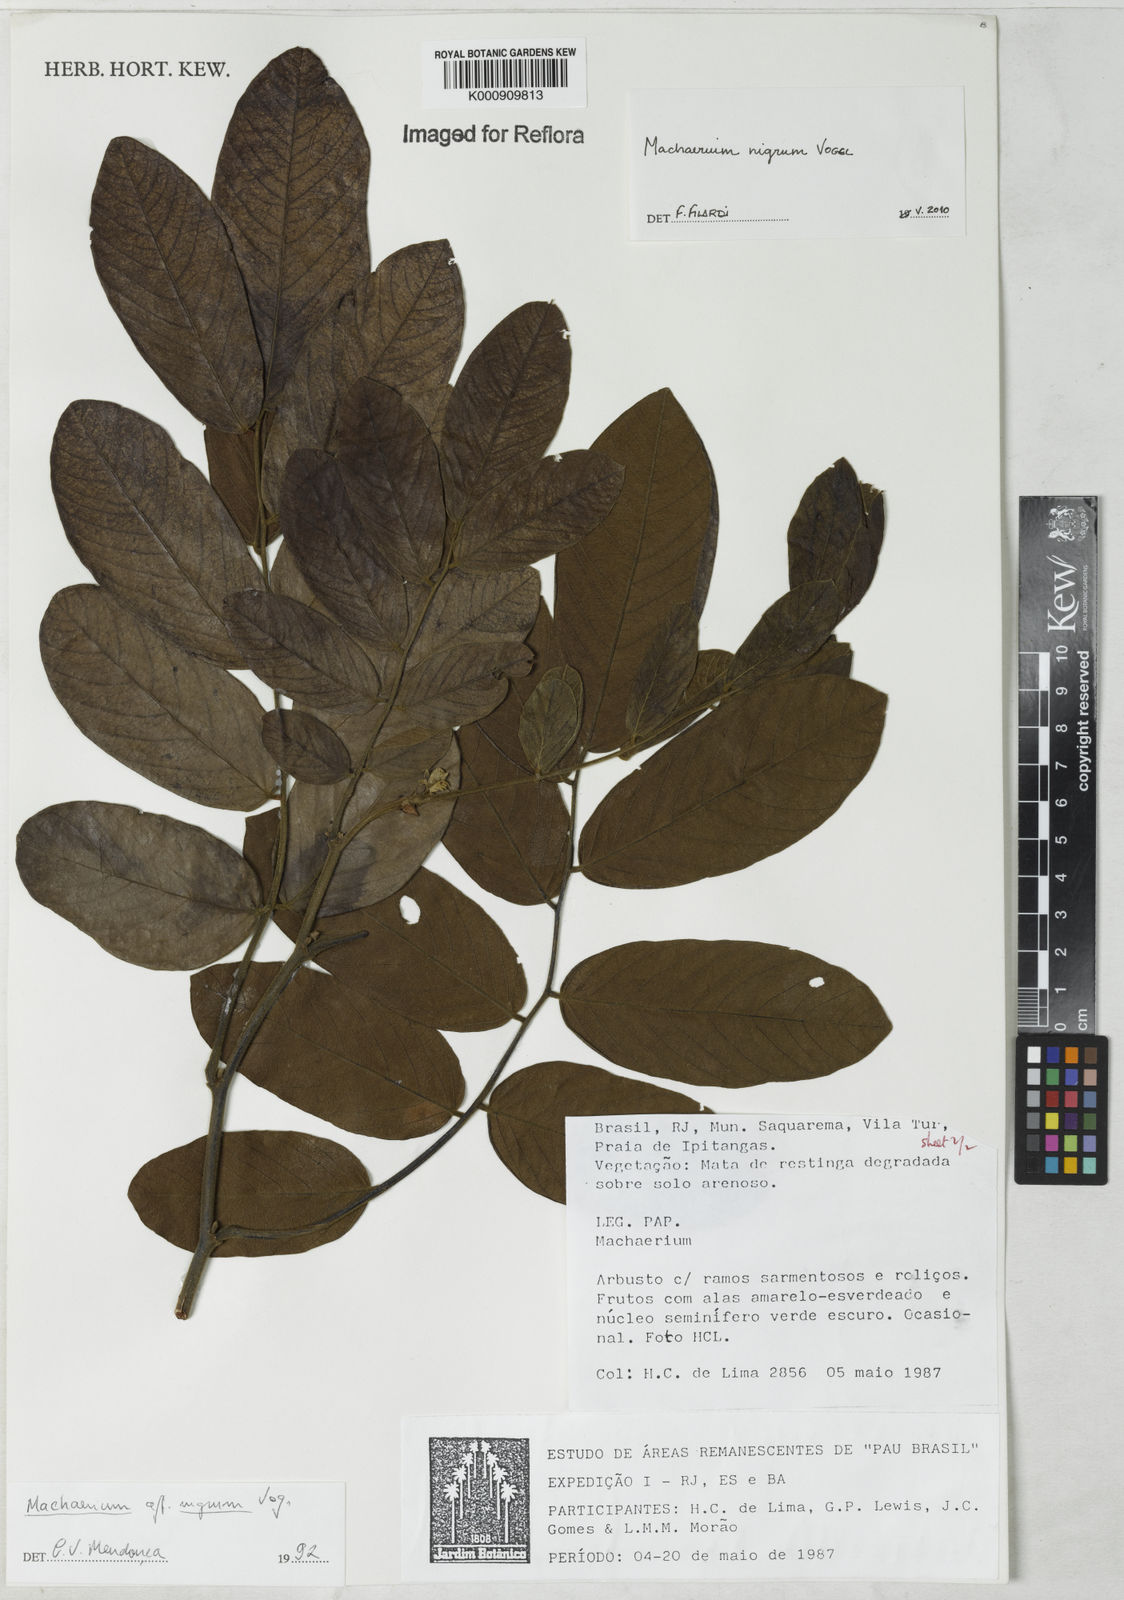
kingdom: Plantae
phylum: Tracheophyta
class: Magnoliopsida
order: Fabales
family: Fabaceae
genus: Machaerium
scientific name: Machaerium nigrum
